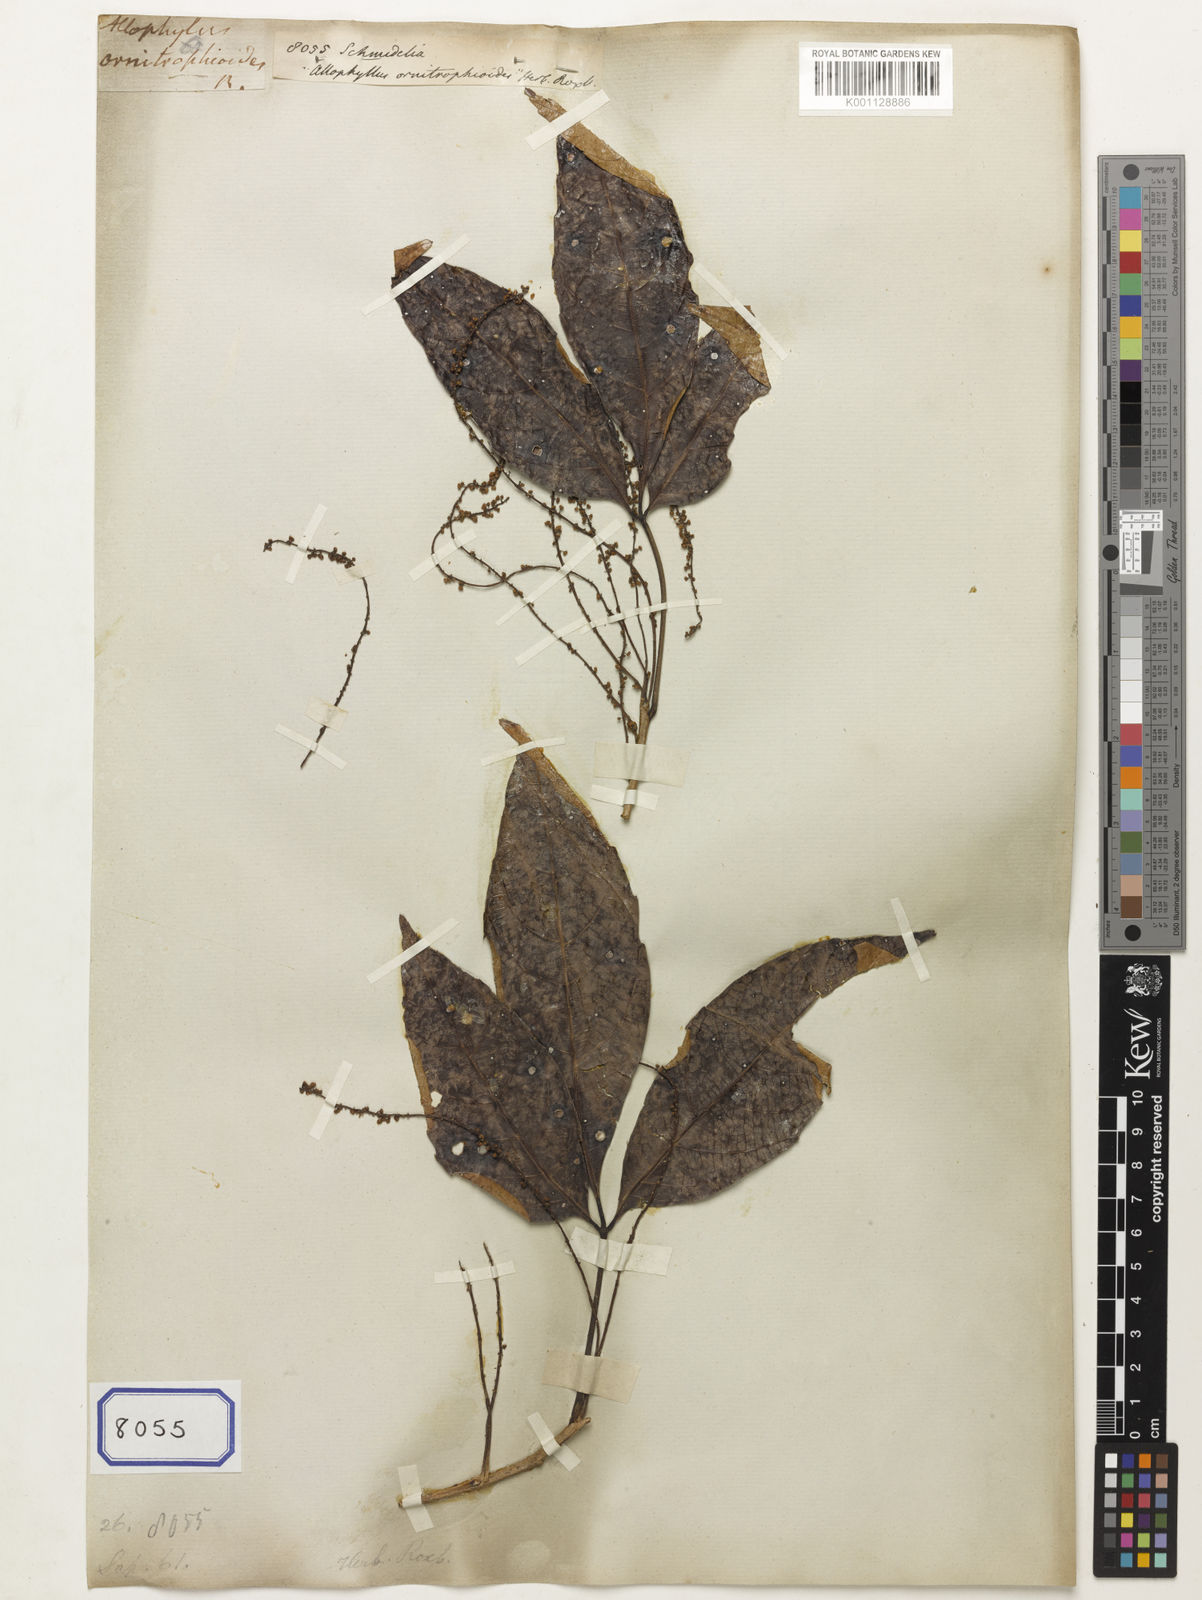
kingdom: Plantae
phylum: Tracheophyta
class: Magnoliopsida
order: Sapindales
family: Sapindaceae
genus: Allophylus
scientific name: Allophylus
